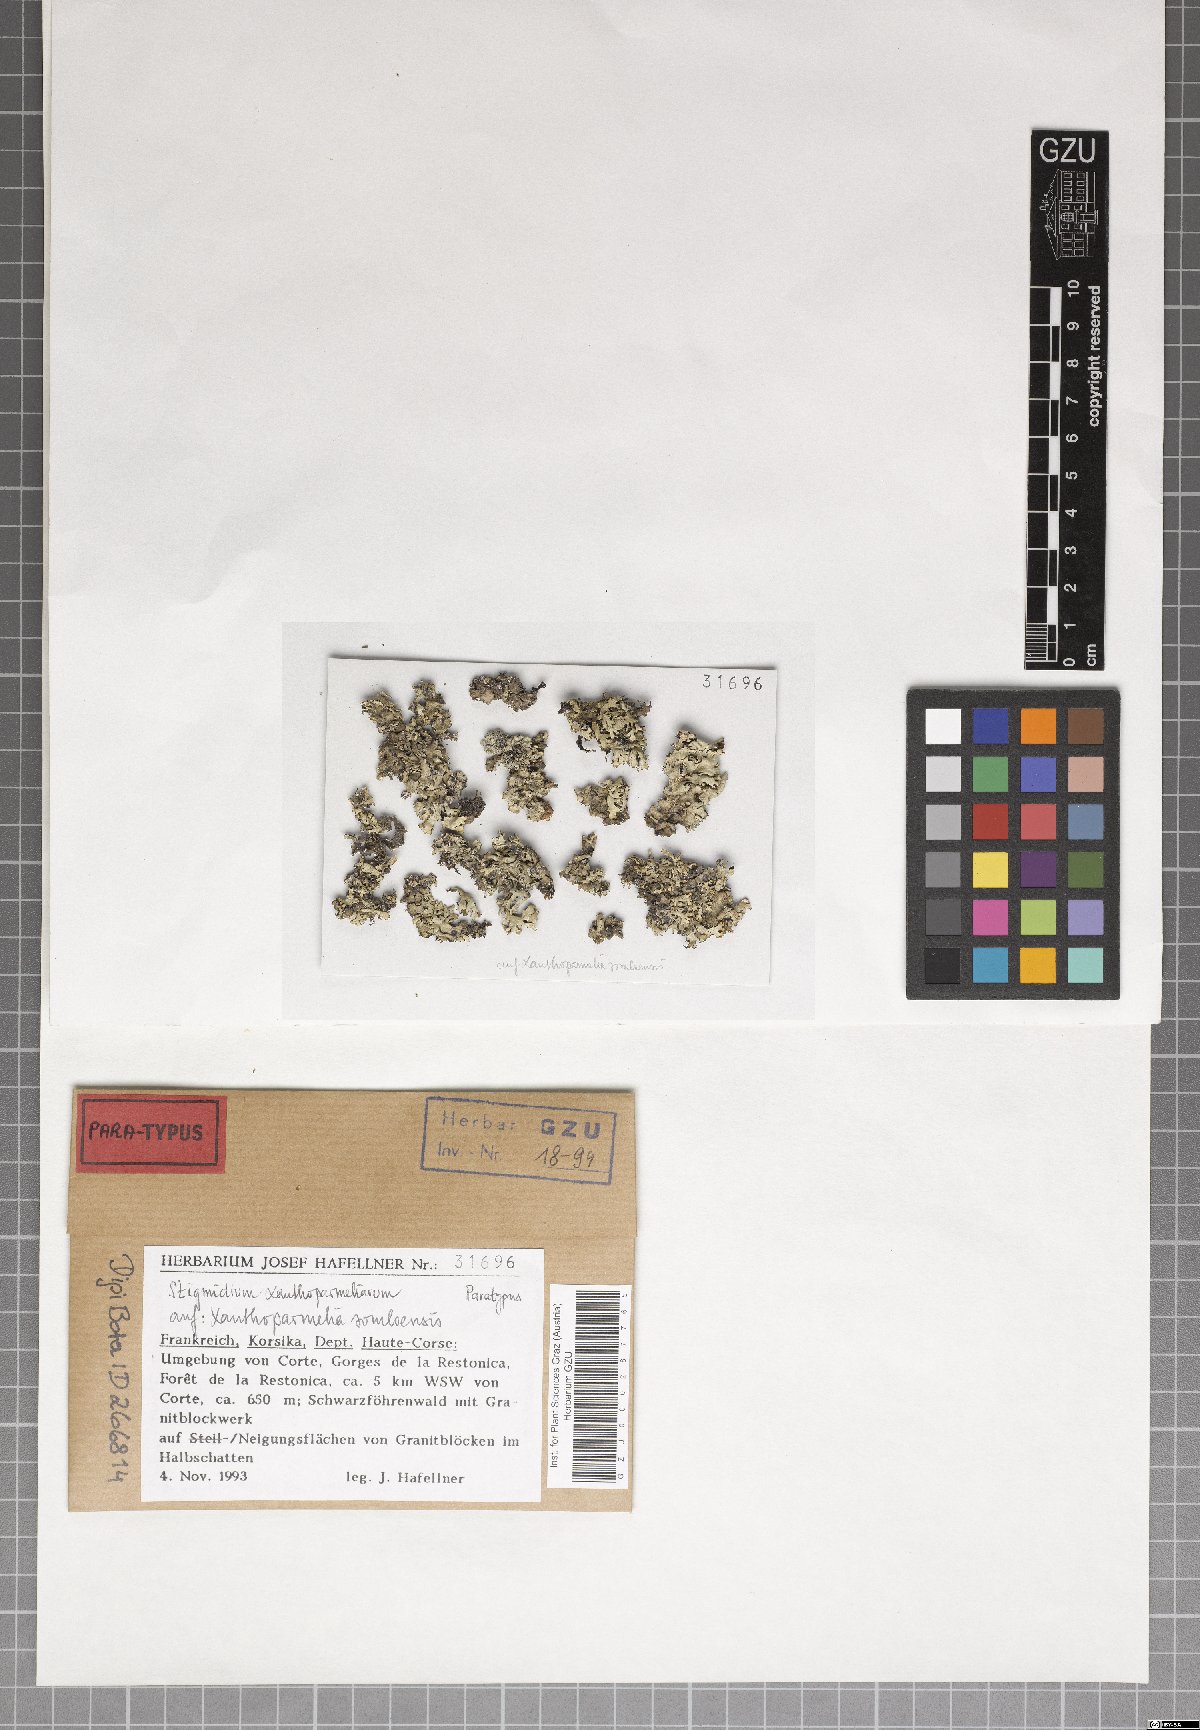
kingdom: Fungi
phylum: Ascomycota
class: Dothideomycetes
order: Mycosphaerellales
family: Mycosphaerellaceae
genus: Stigmidium
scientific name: Stigmidium xanthoparmeliarum
